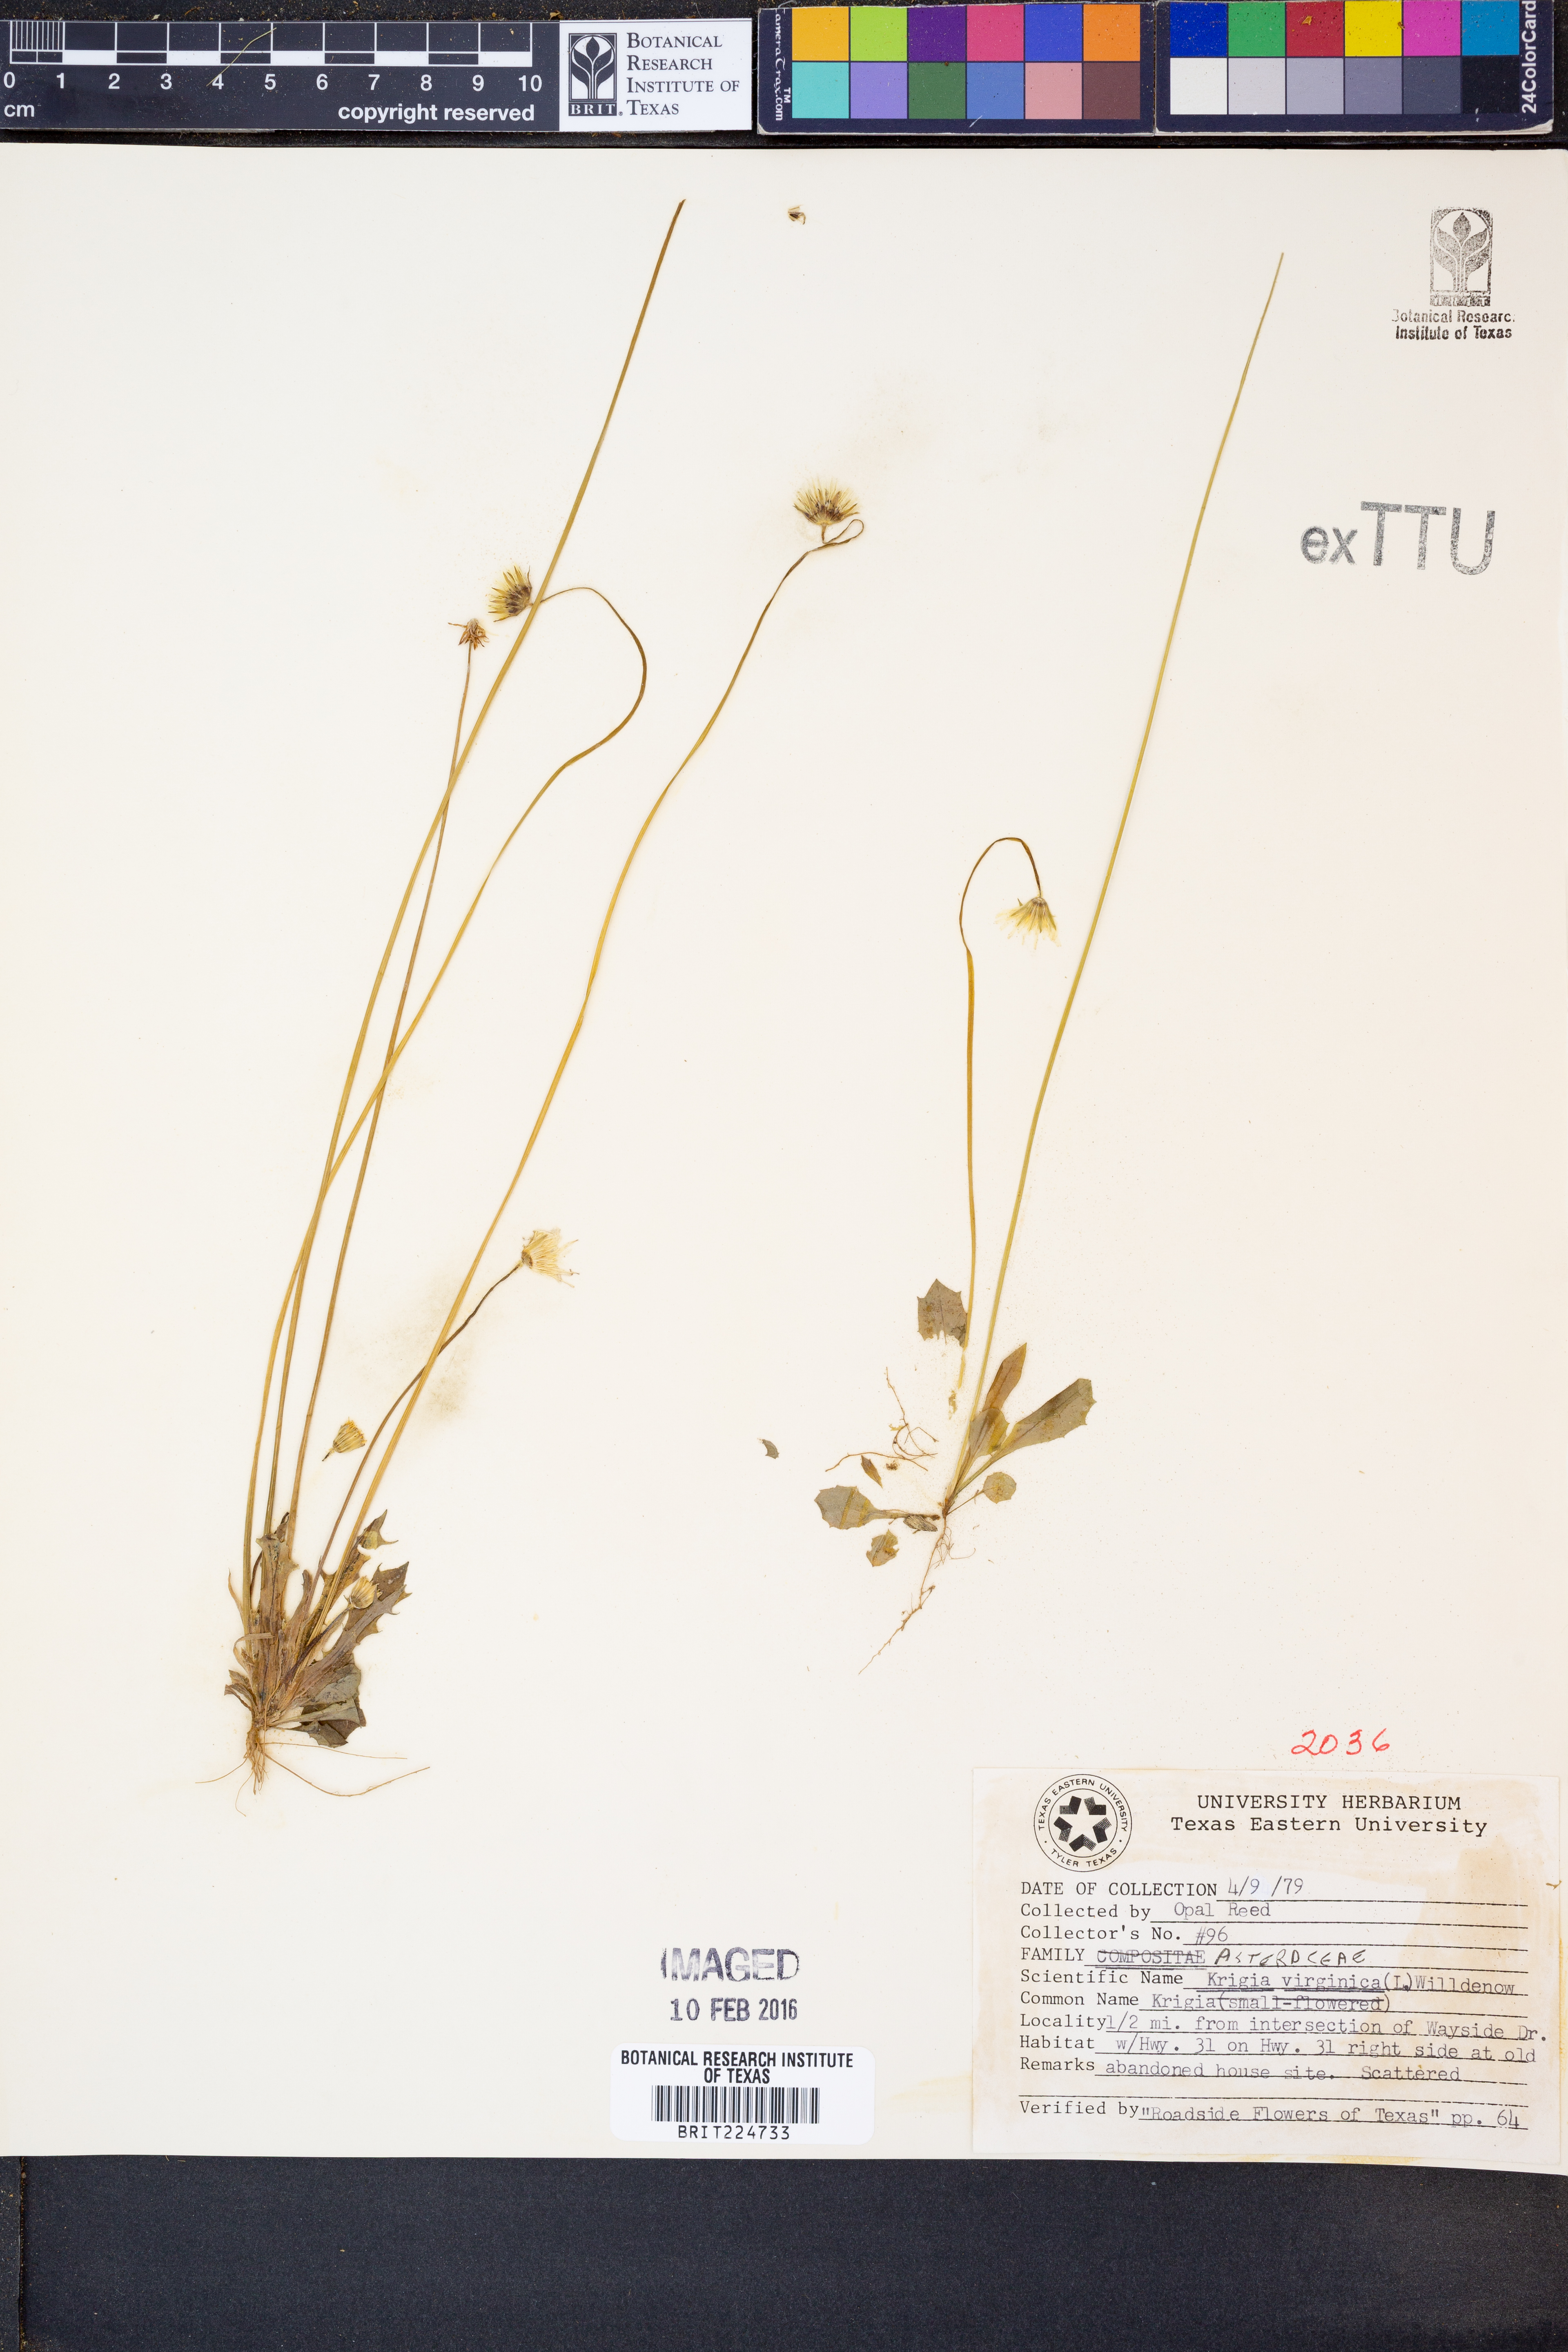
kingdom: Plantae
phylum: Tracheophyta
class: Magnoliopsida
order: Asterales
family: Asteraceae
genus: Krigia
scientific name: Krigia virginica
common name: Virginia dwarf-dandelion
